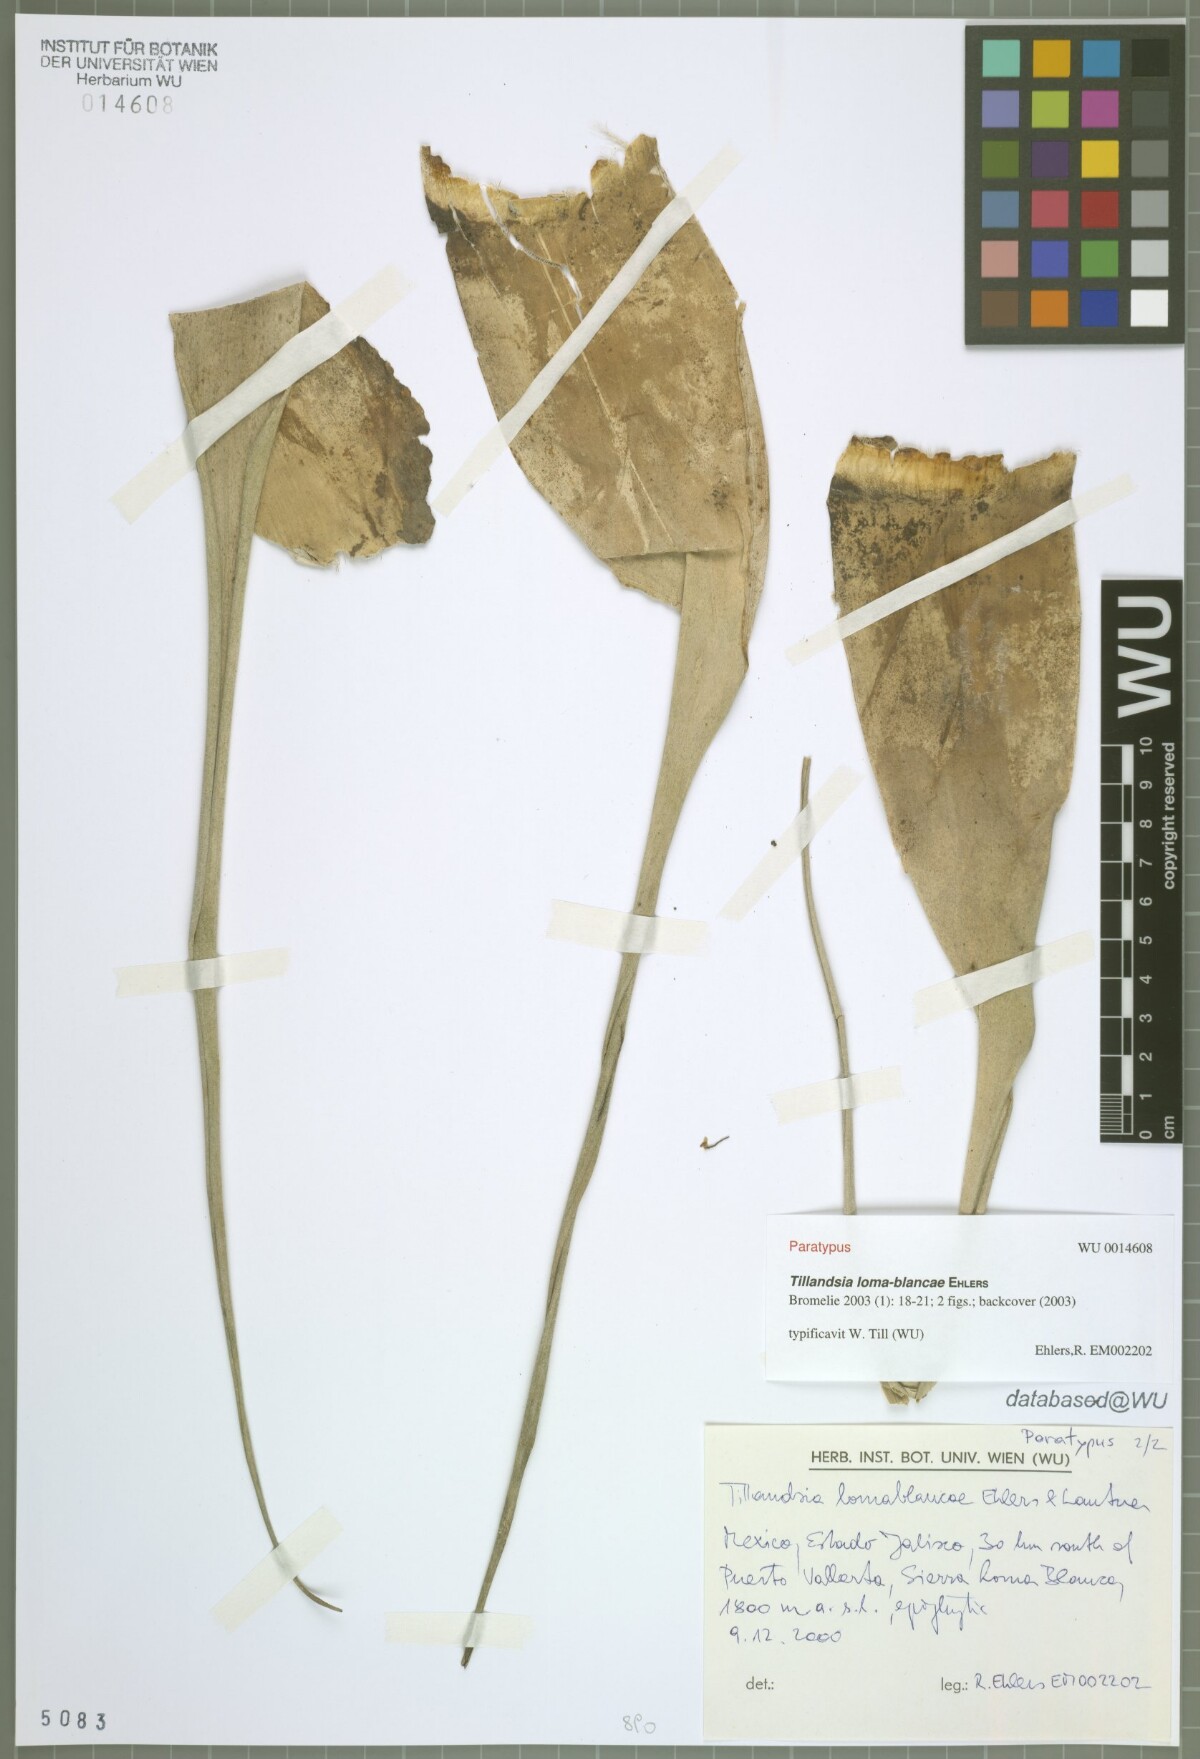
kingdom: Plantae
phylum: Tracheophyta
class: Liliopsida
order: Poales
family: Bromeliaceae
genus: Tillandsia
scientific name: Tillandsia loma-blancae
